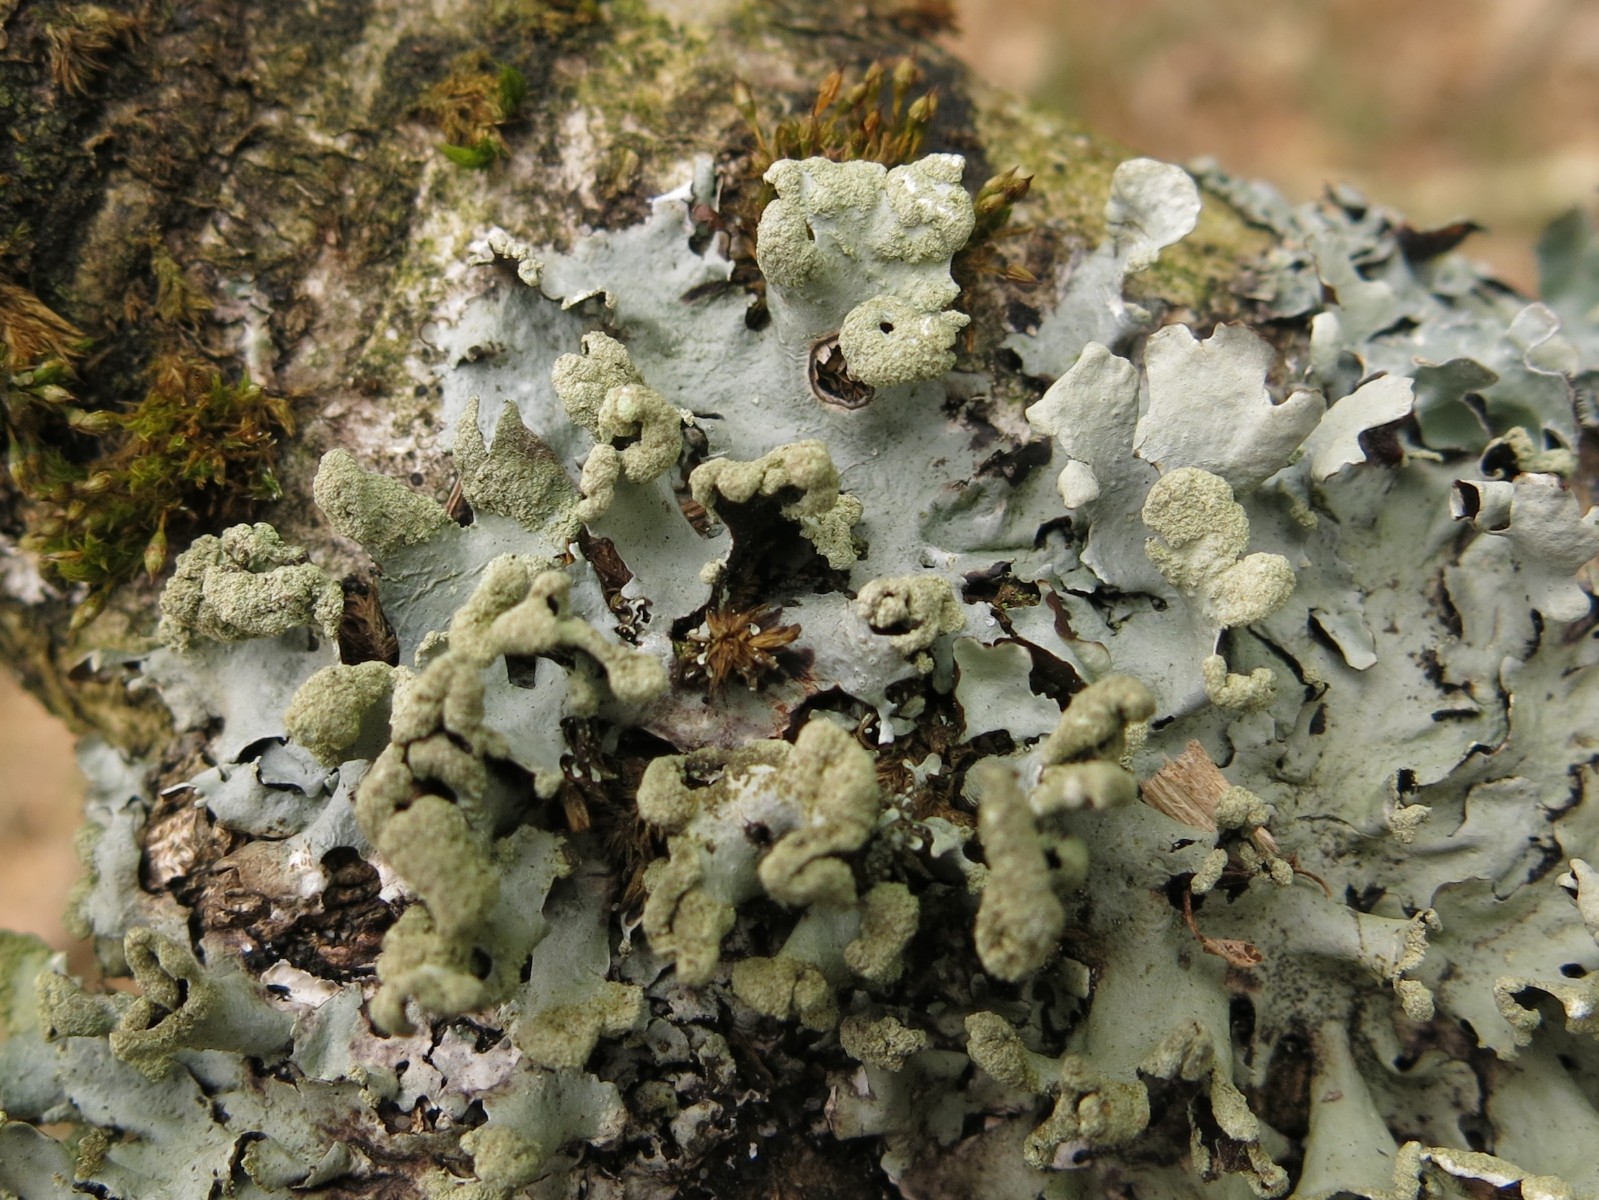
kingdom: Fungi
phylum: Ascomycota
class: Lecanoromycetes
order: Lecanorales
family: Parmeliaceae
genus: Hypotrachyna
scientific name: Hypotrachyna revoluta
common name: bleggrå skållav
